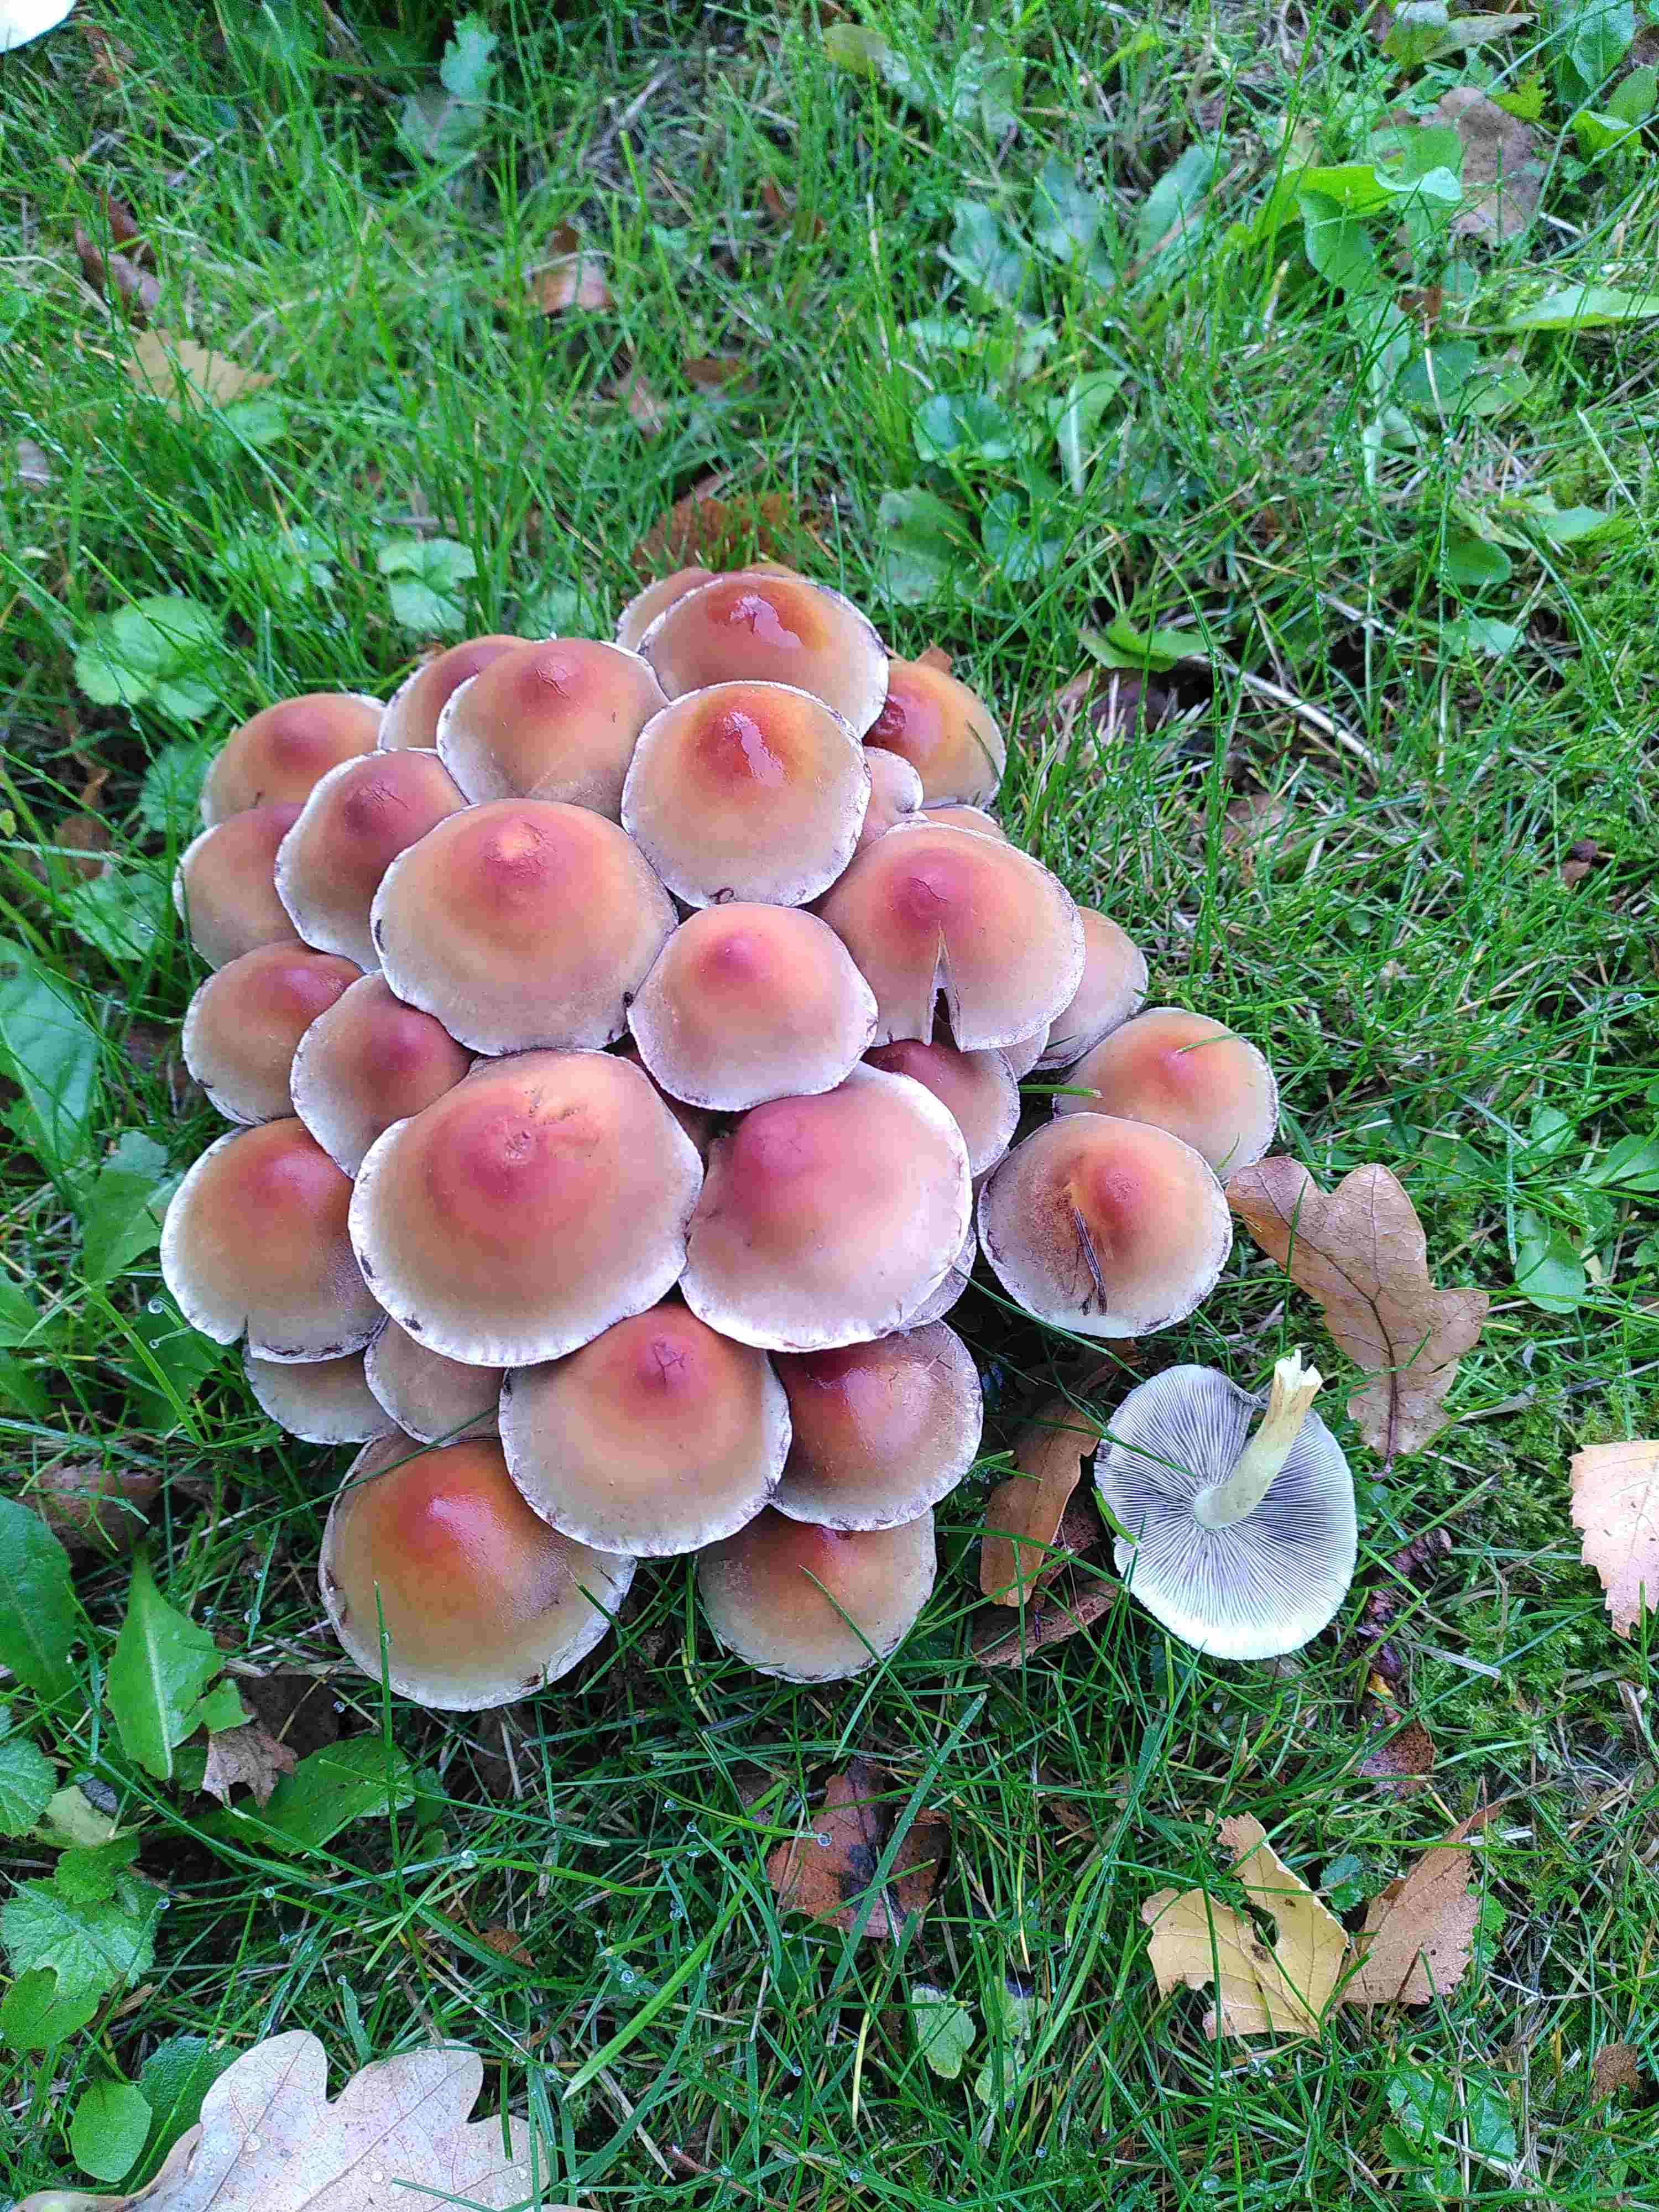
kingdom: Fungi
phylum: Basidiomycota
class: Agaricomycetes
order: Agaricales
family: Strophariaceae
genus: Hypholoma
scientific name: Hypholoma lateritium
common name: teglrød svovlhat
